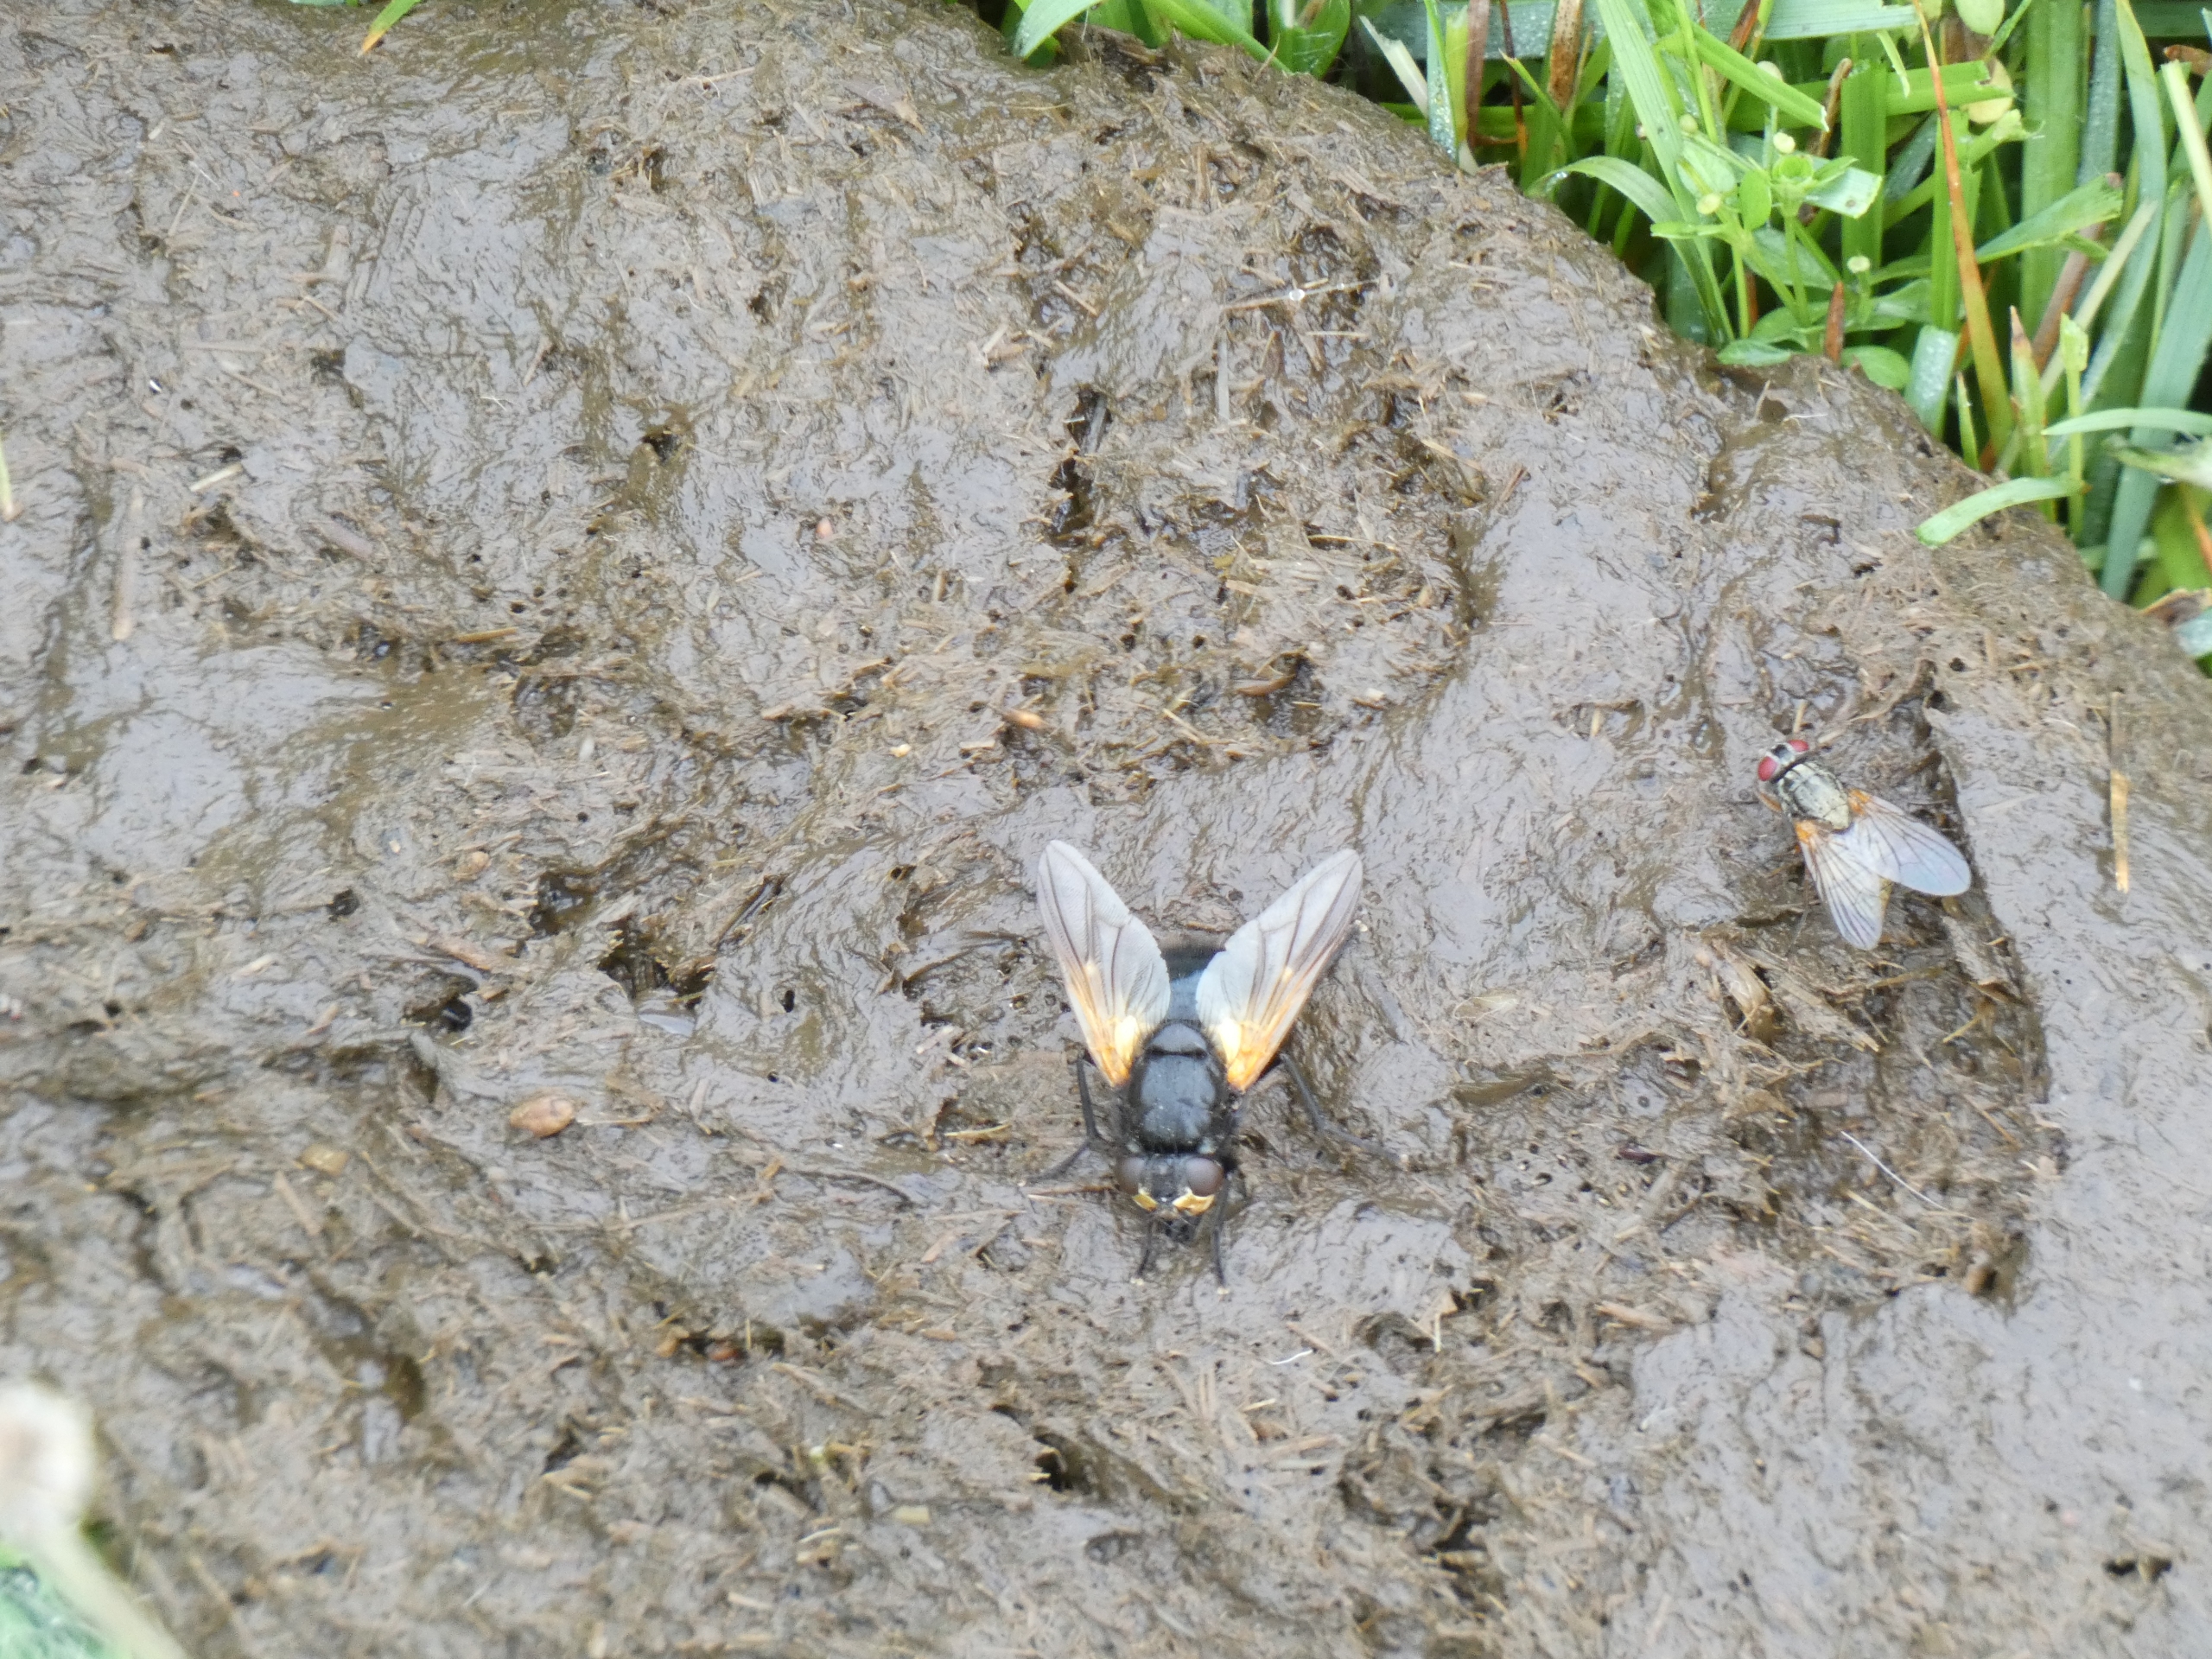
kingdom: Animalia
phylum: Arthropoda
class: Insecta
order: Diptera
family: Muscidae
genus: Mesembrina
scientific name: Mesembrina meridiana
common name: Gulvinget flue
